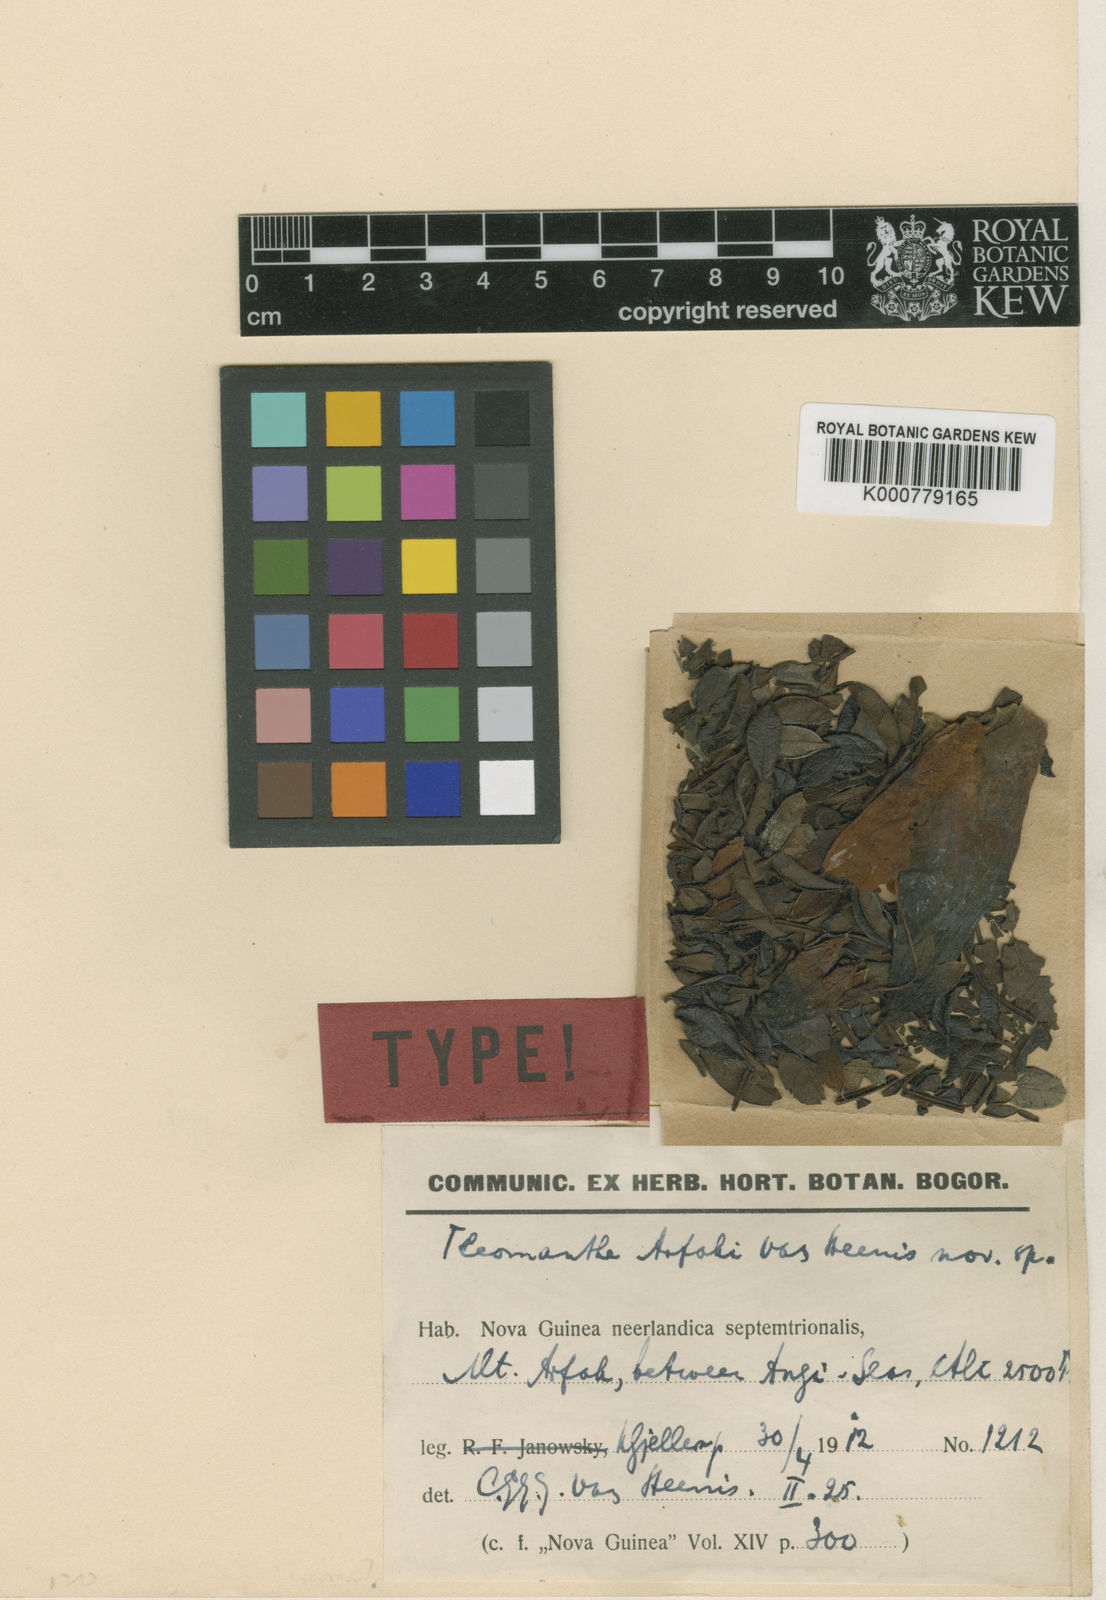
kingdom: Plantae
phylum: Tracheophyta
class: Magnoliopsida
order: Lamiales
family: Bignoniaceae
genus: Tecomanthe
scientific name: Tecomanthe volubilis
